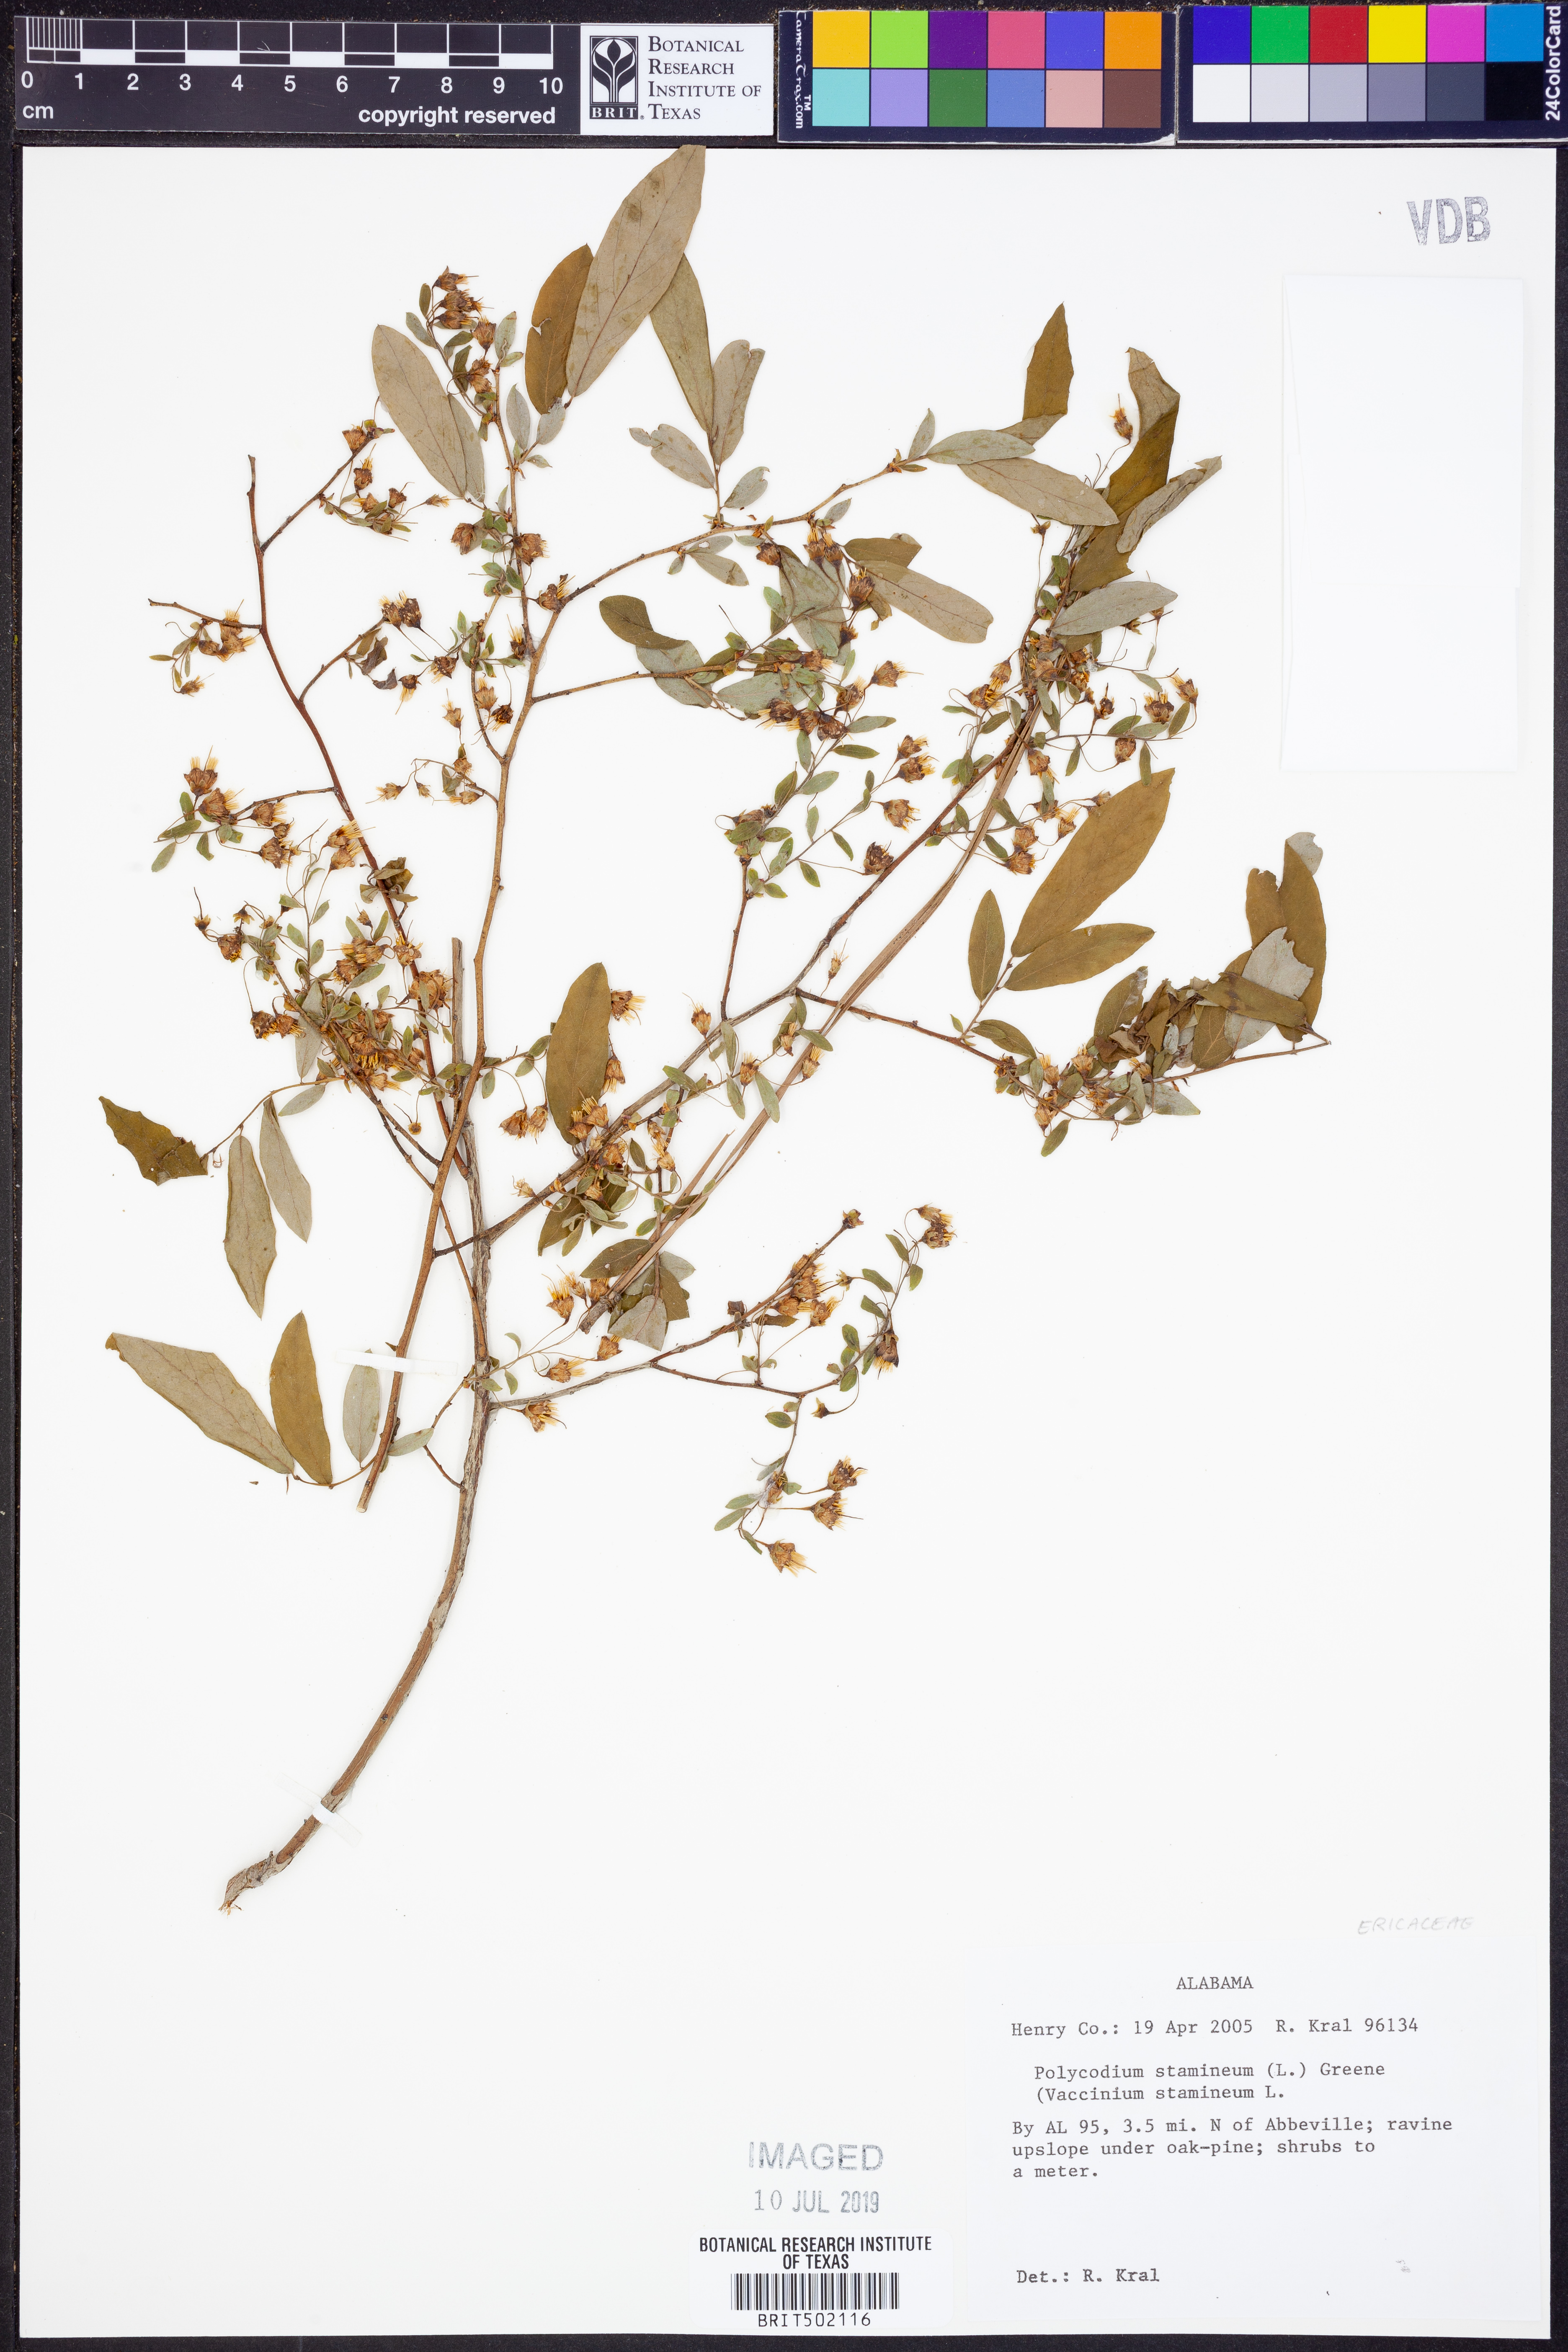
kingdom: Plantae
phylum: Tracheophyta
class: Magnoliopsida
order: Ericales
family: Ericaceae
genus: Vaccinium
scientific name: Vaccinium stamineum
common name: Deerberry
